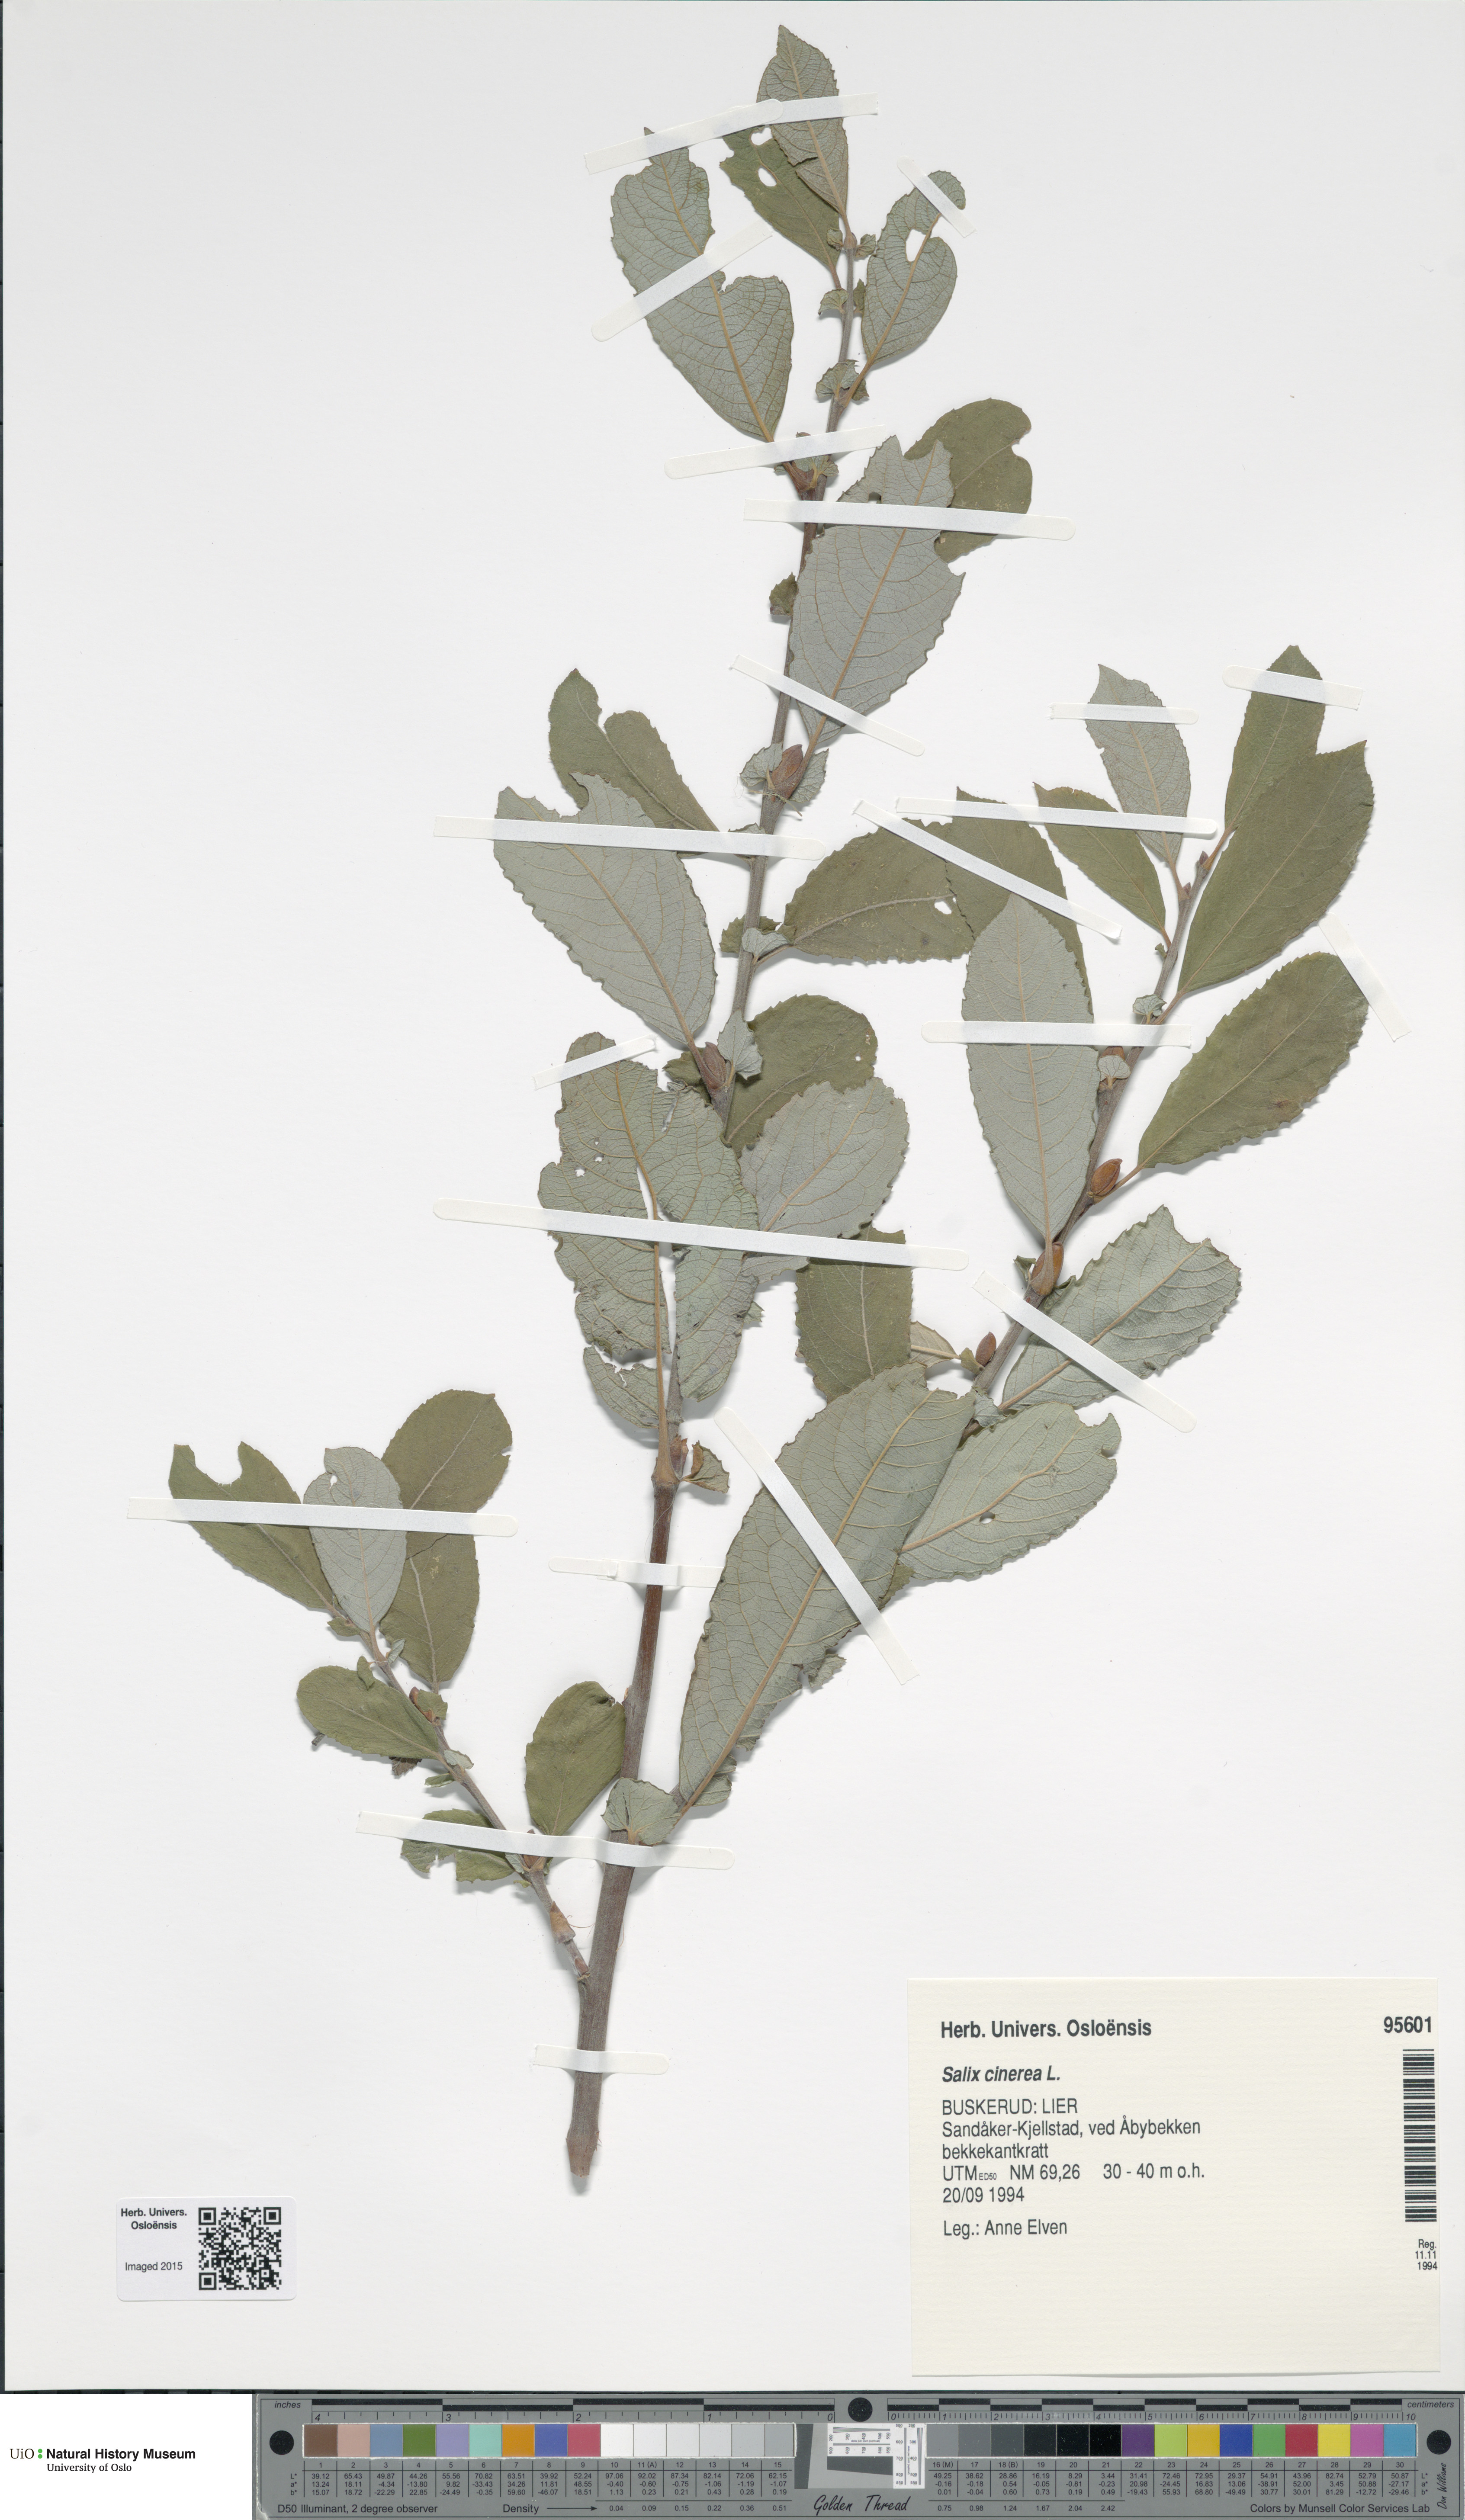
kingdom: Plantae
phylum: Tracheophyta
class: Magnoliopsida
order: Malpighiales
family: Salicaceae
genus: Salix
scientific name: Salix cinerea
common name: Common sallow
